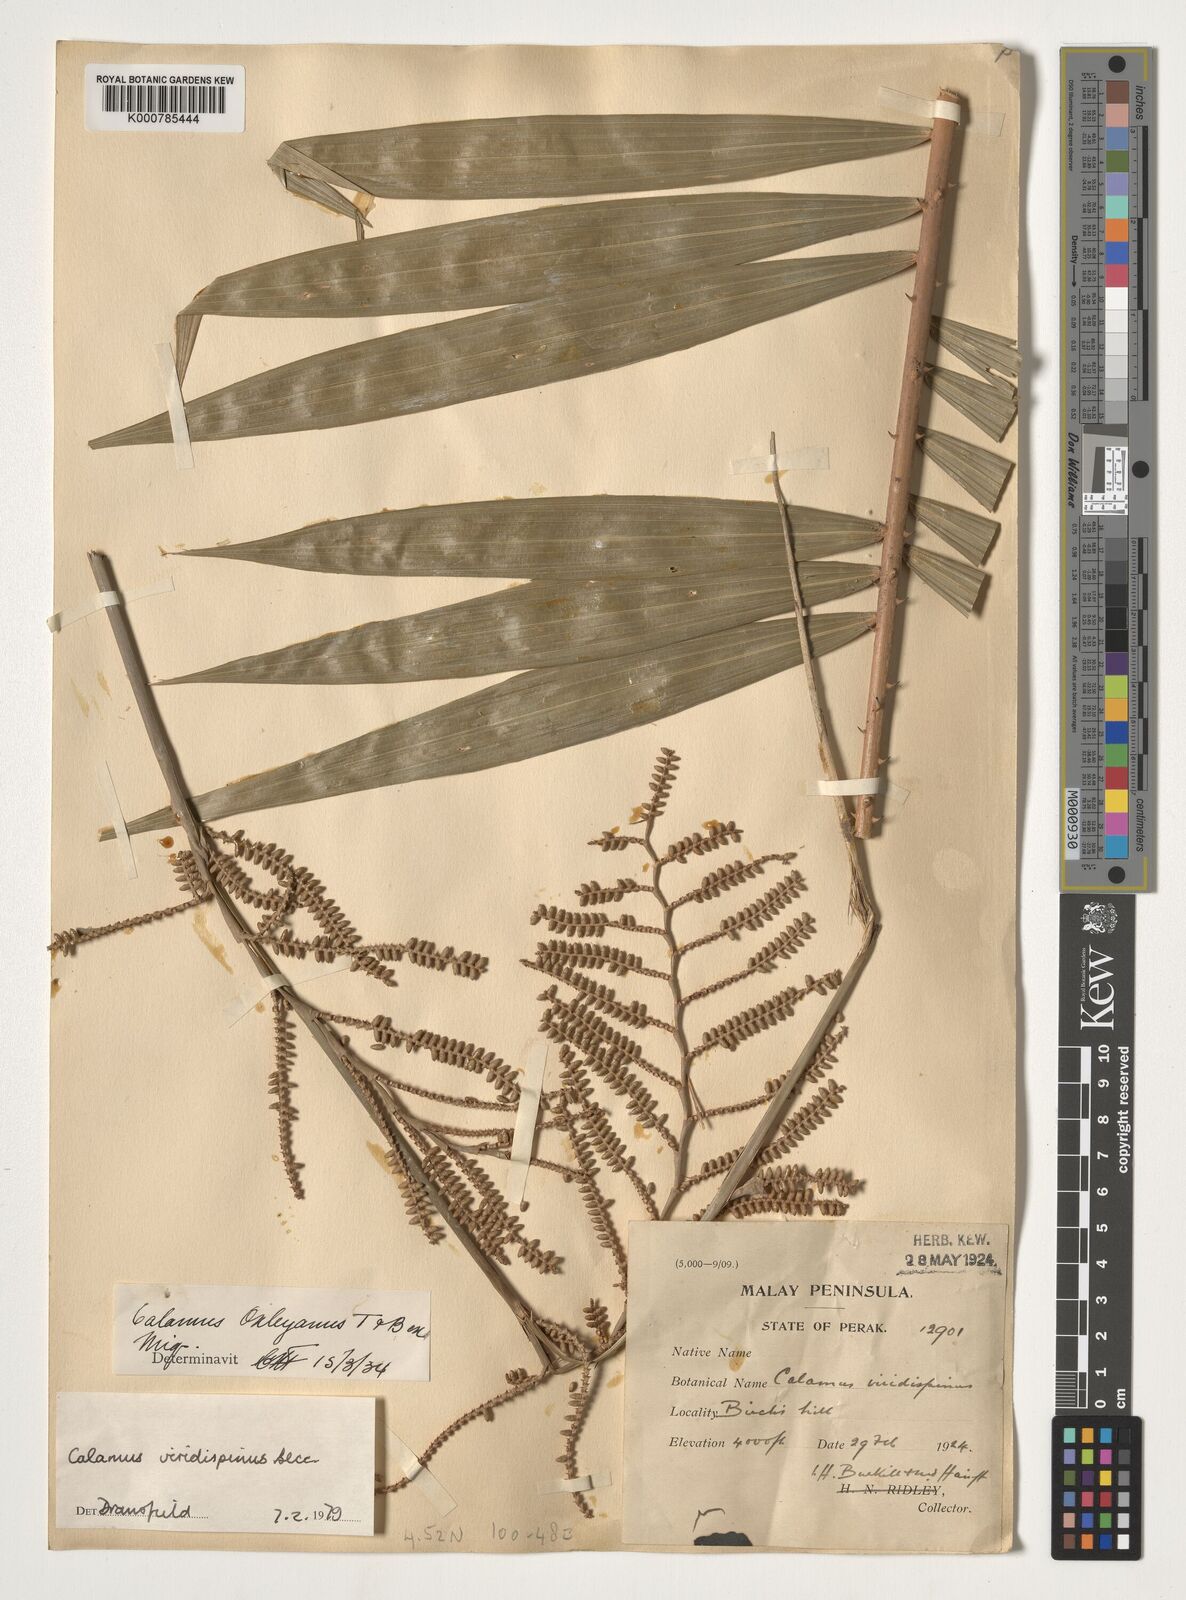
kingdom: Plantae
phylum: Tracheophyta
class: Liliopsida
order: Arecales
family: Arecaceae
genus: Calamus
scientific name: Calamus helferianus
